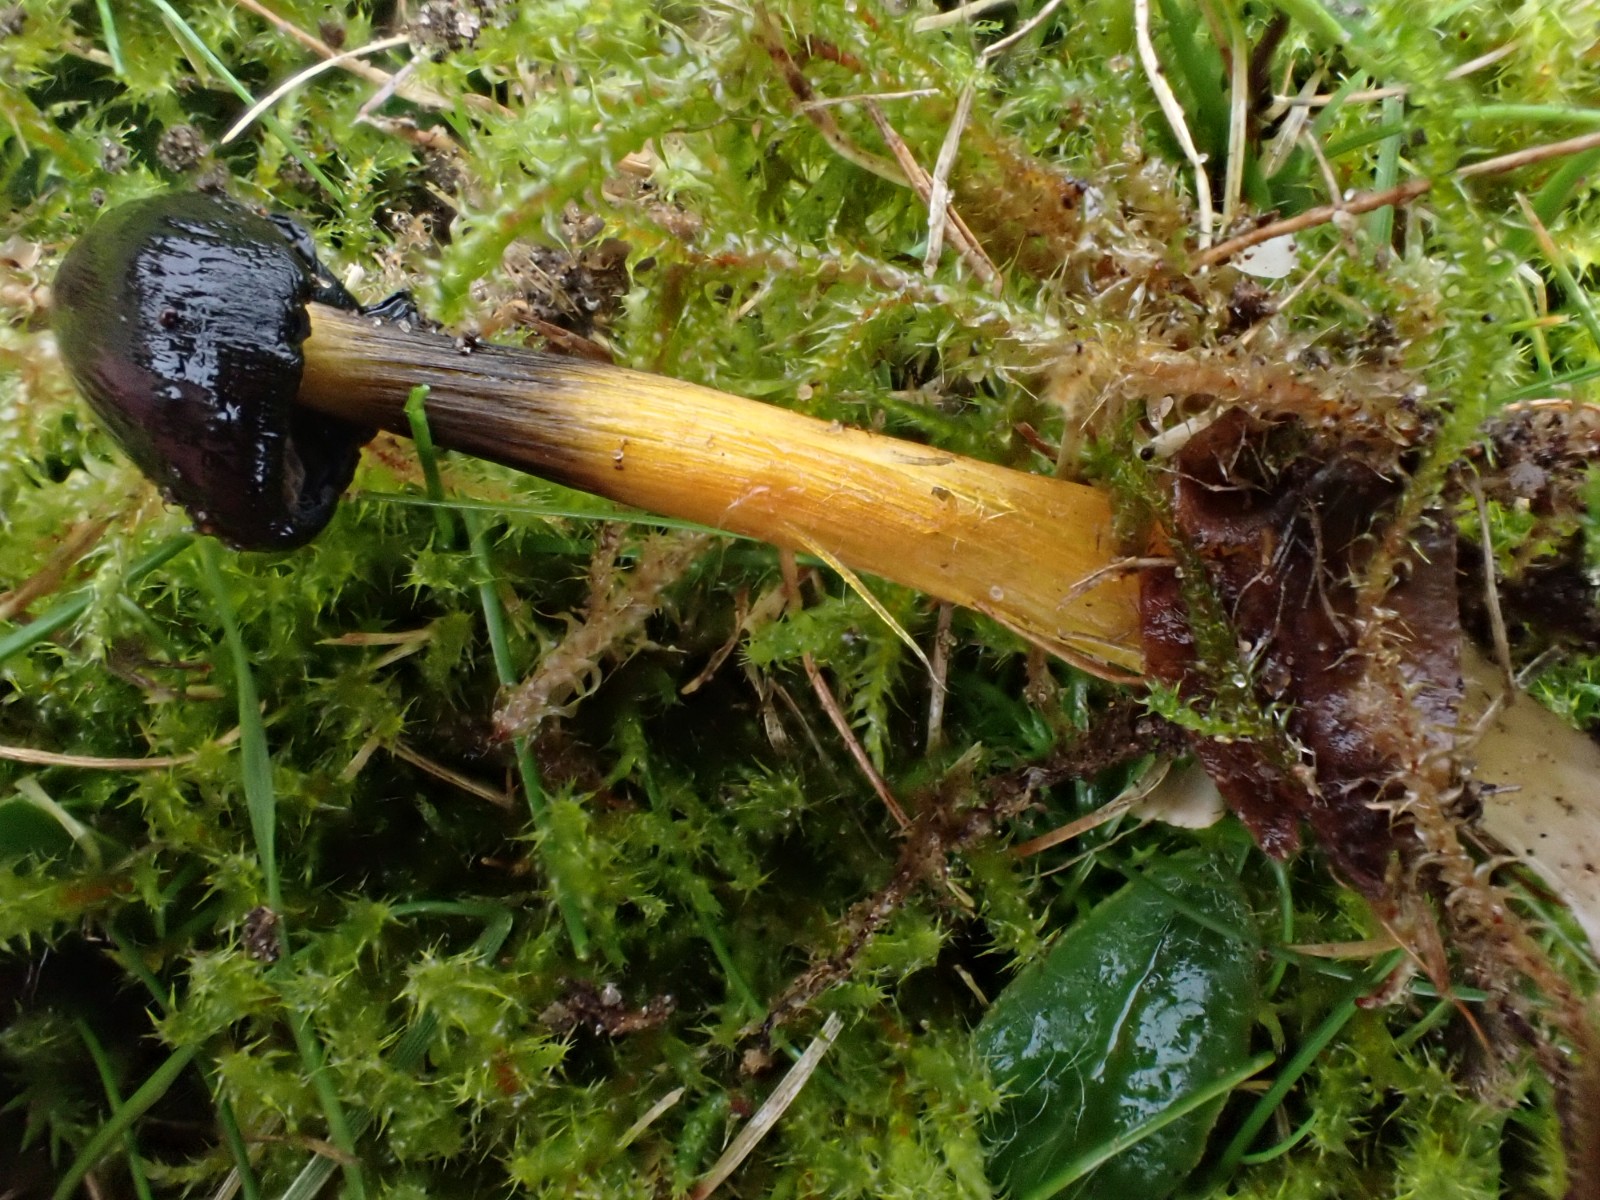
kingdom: Fungi
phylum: Basidiomycota
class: Agaricomycetes
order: Agaricales
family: Hygrophoraceae
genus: Hygrocybe
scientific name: Hygrocybe conica
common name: kegle-vokshat
